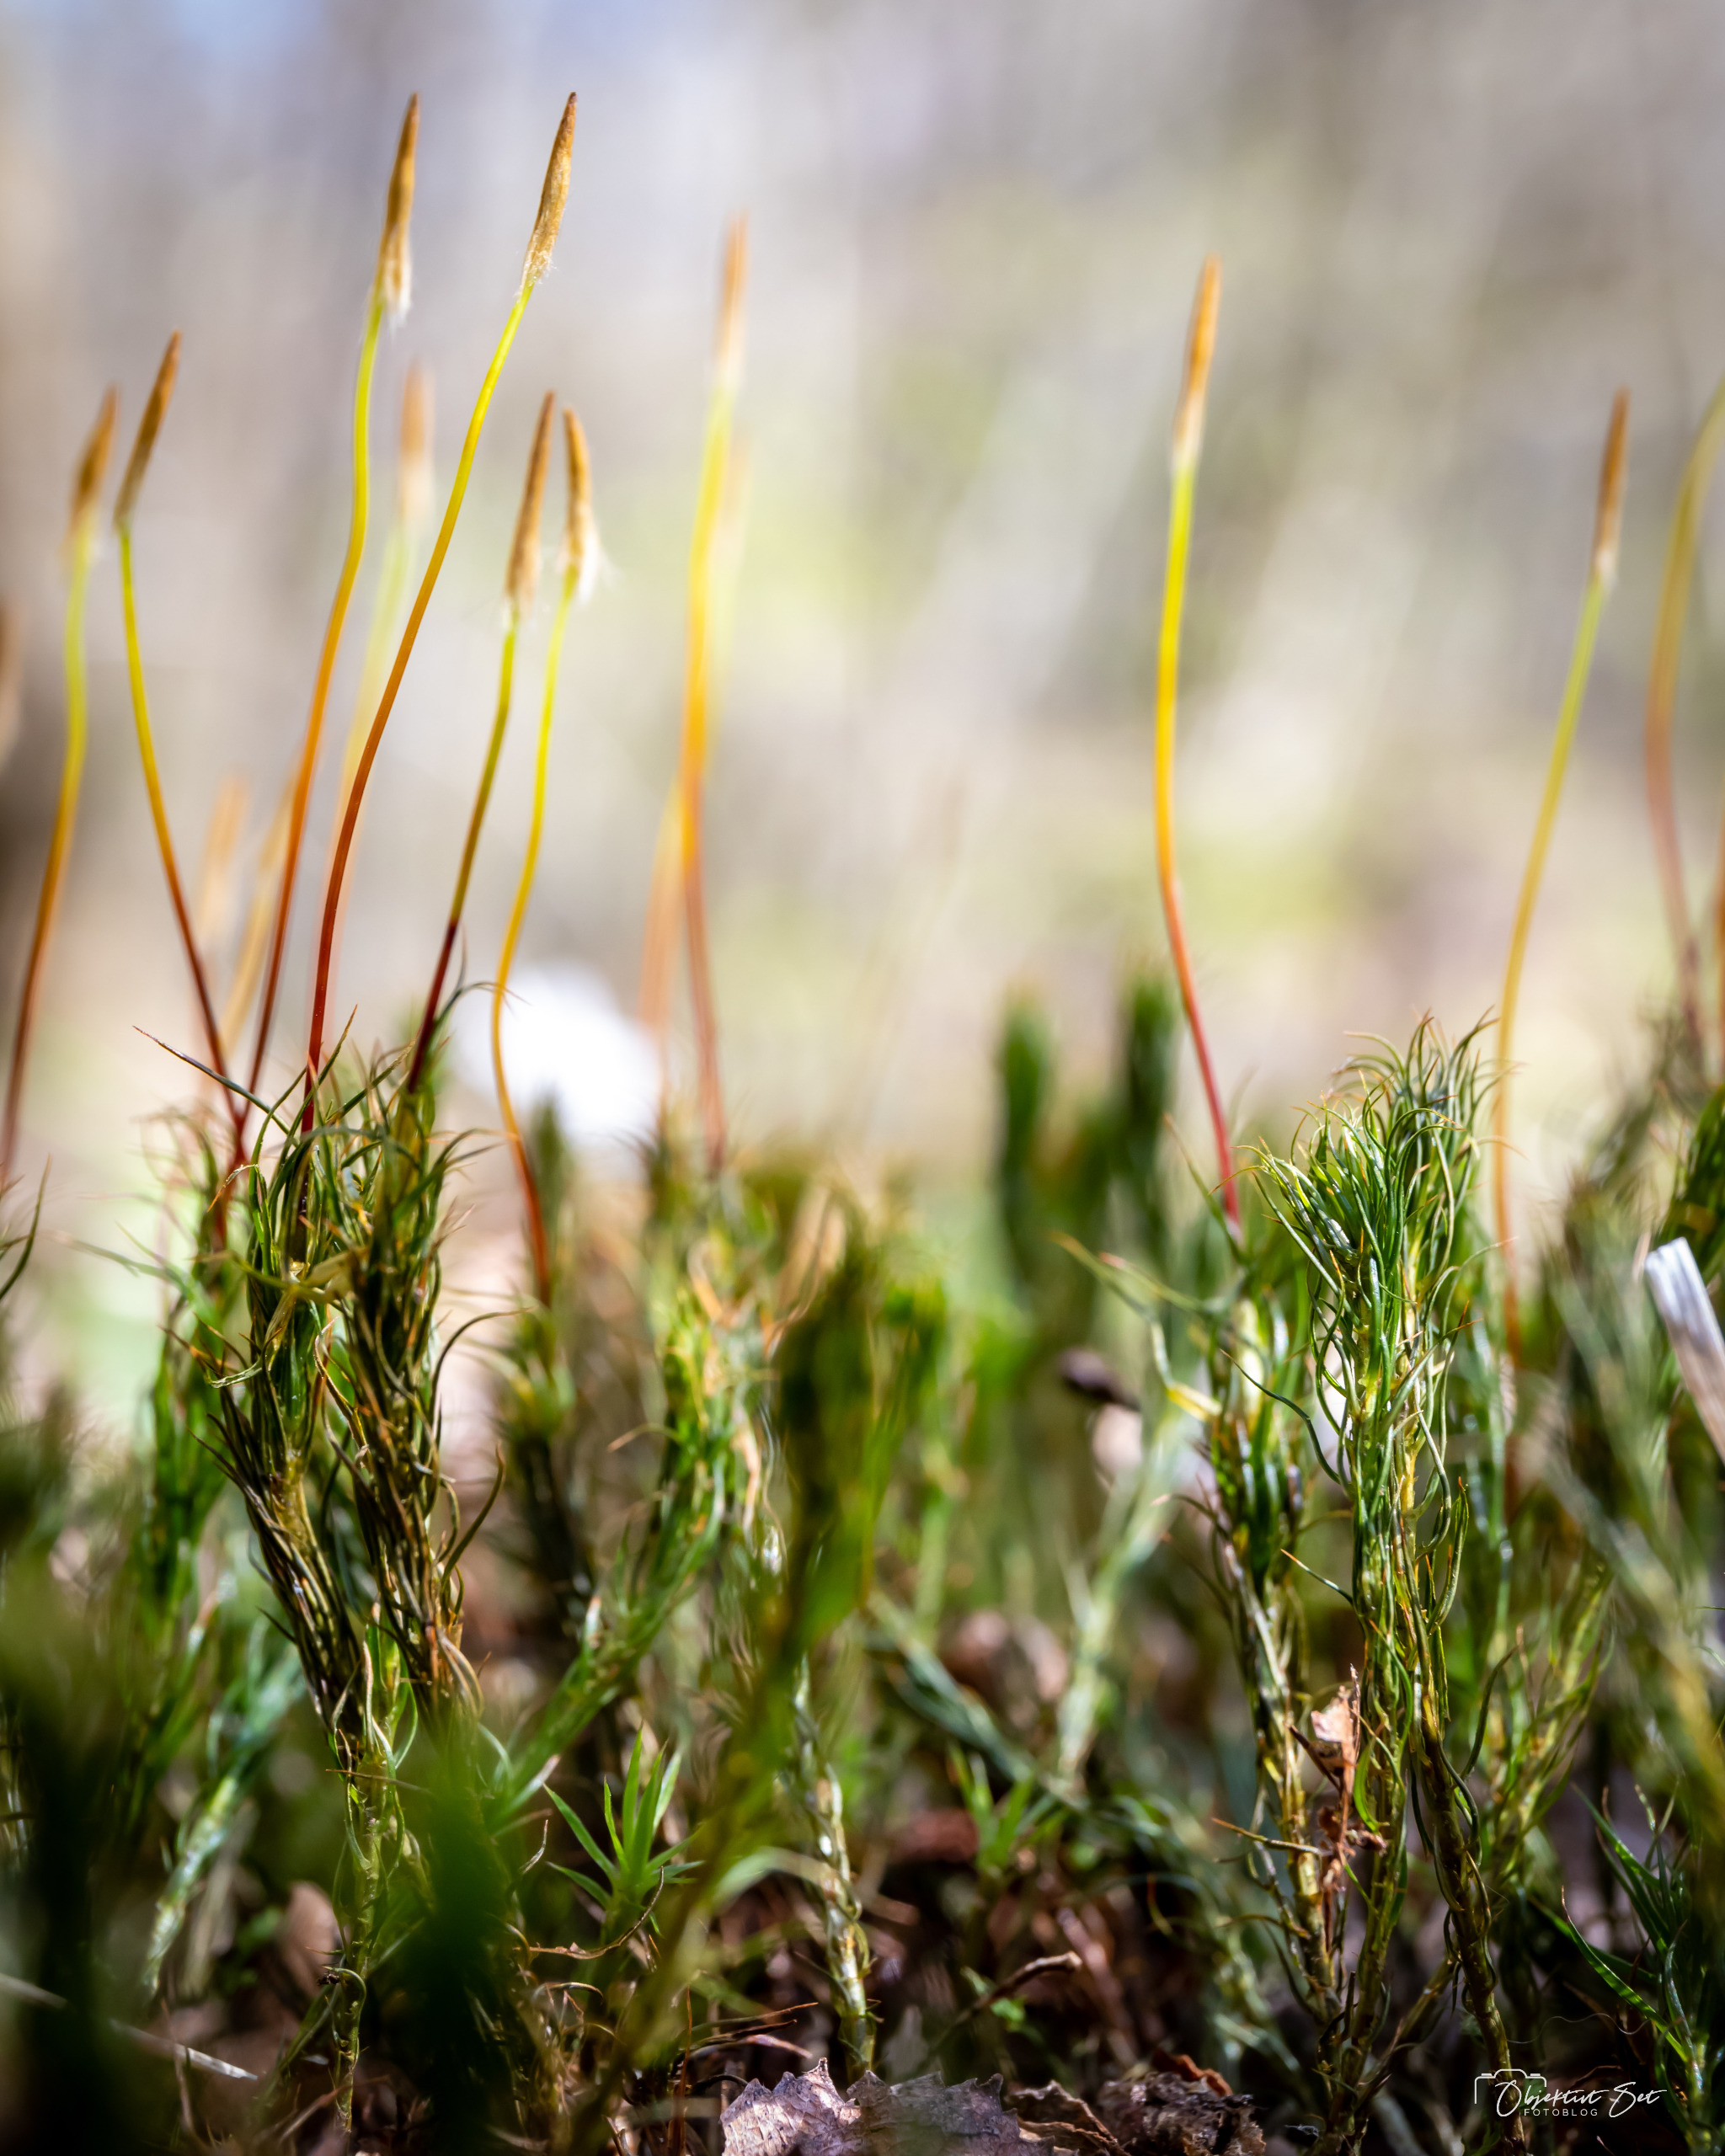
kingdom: Plantae
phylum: Bryophyta
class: Polytrichopsida
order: Polytrichales
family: Polytrichaceae
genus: Polytrichum
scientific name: Polytrichum
